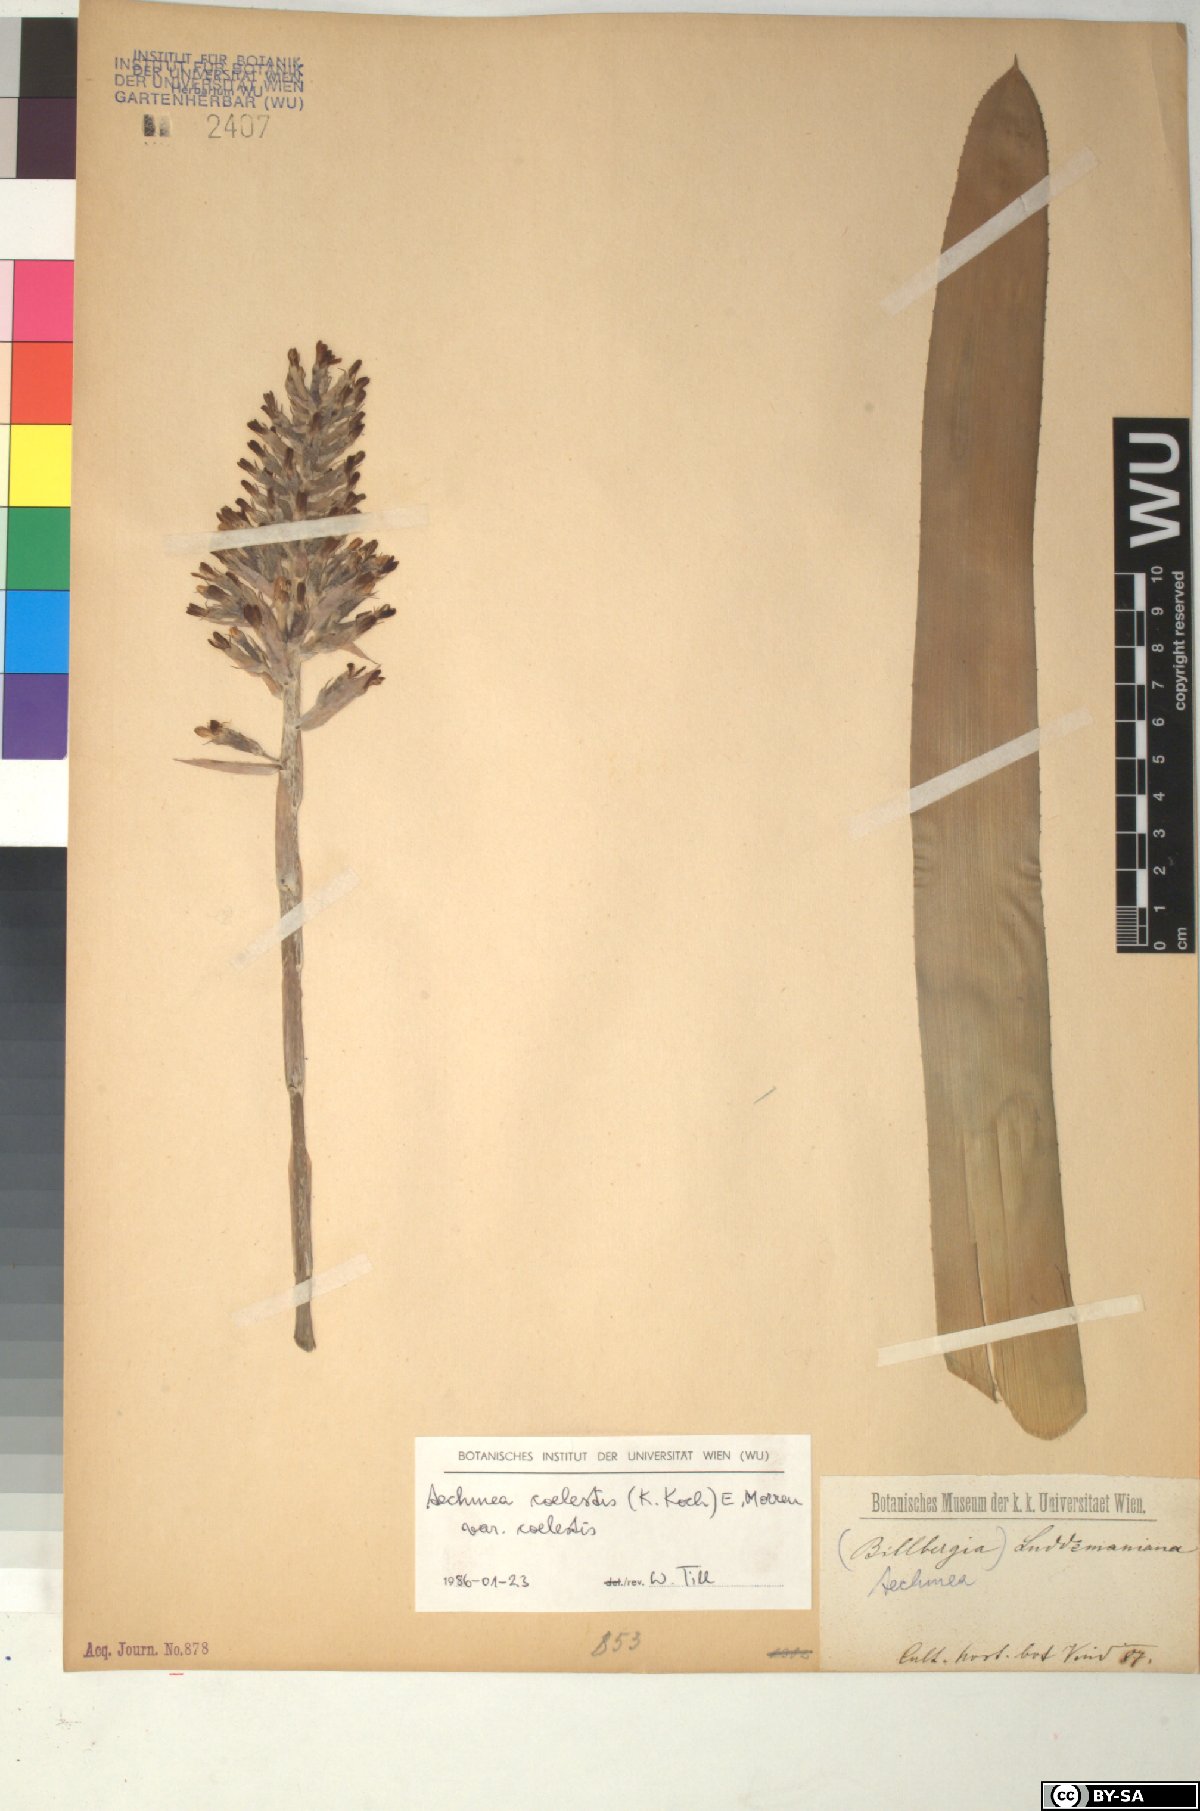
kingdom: Plantae
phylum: Tracheophyta
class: Liliopsida
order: Poales
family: Bromeliaceae
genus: Aechmea
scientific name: Aechmea coelestis
